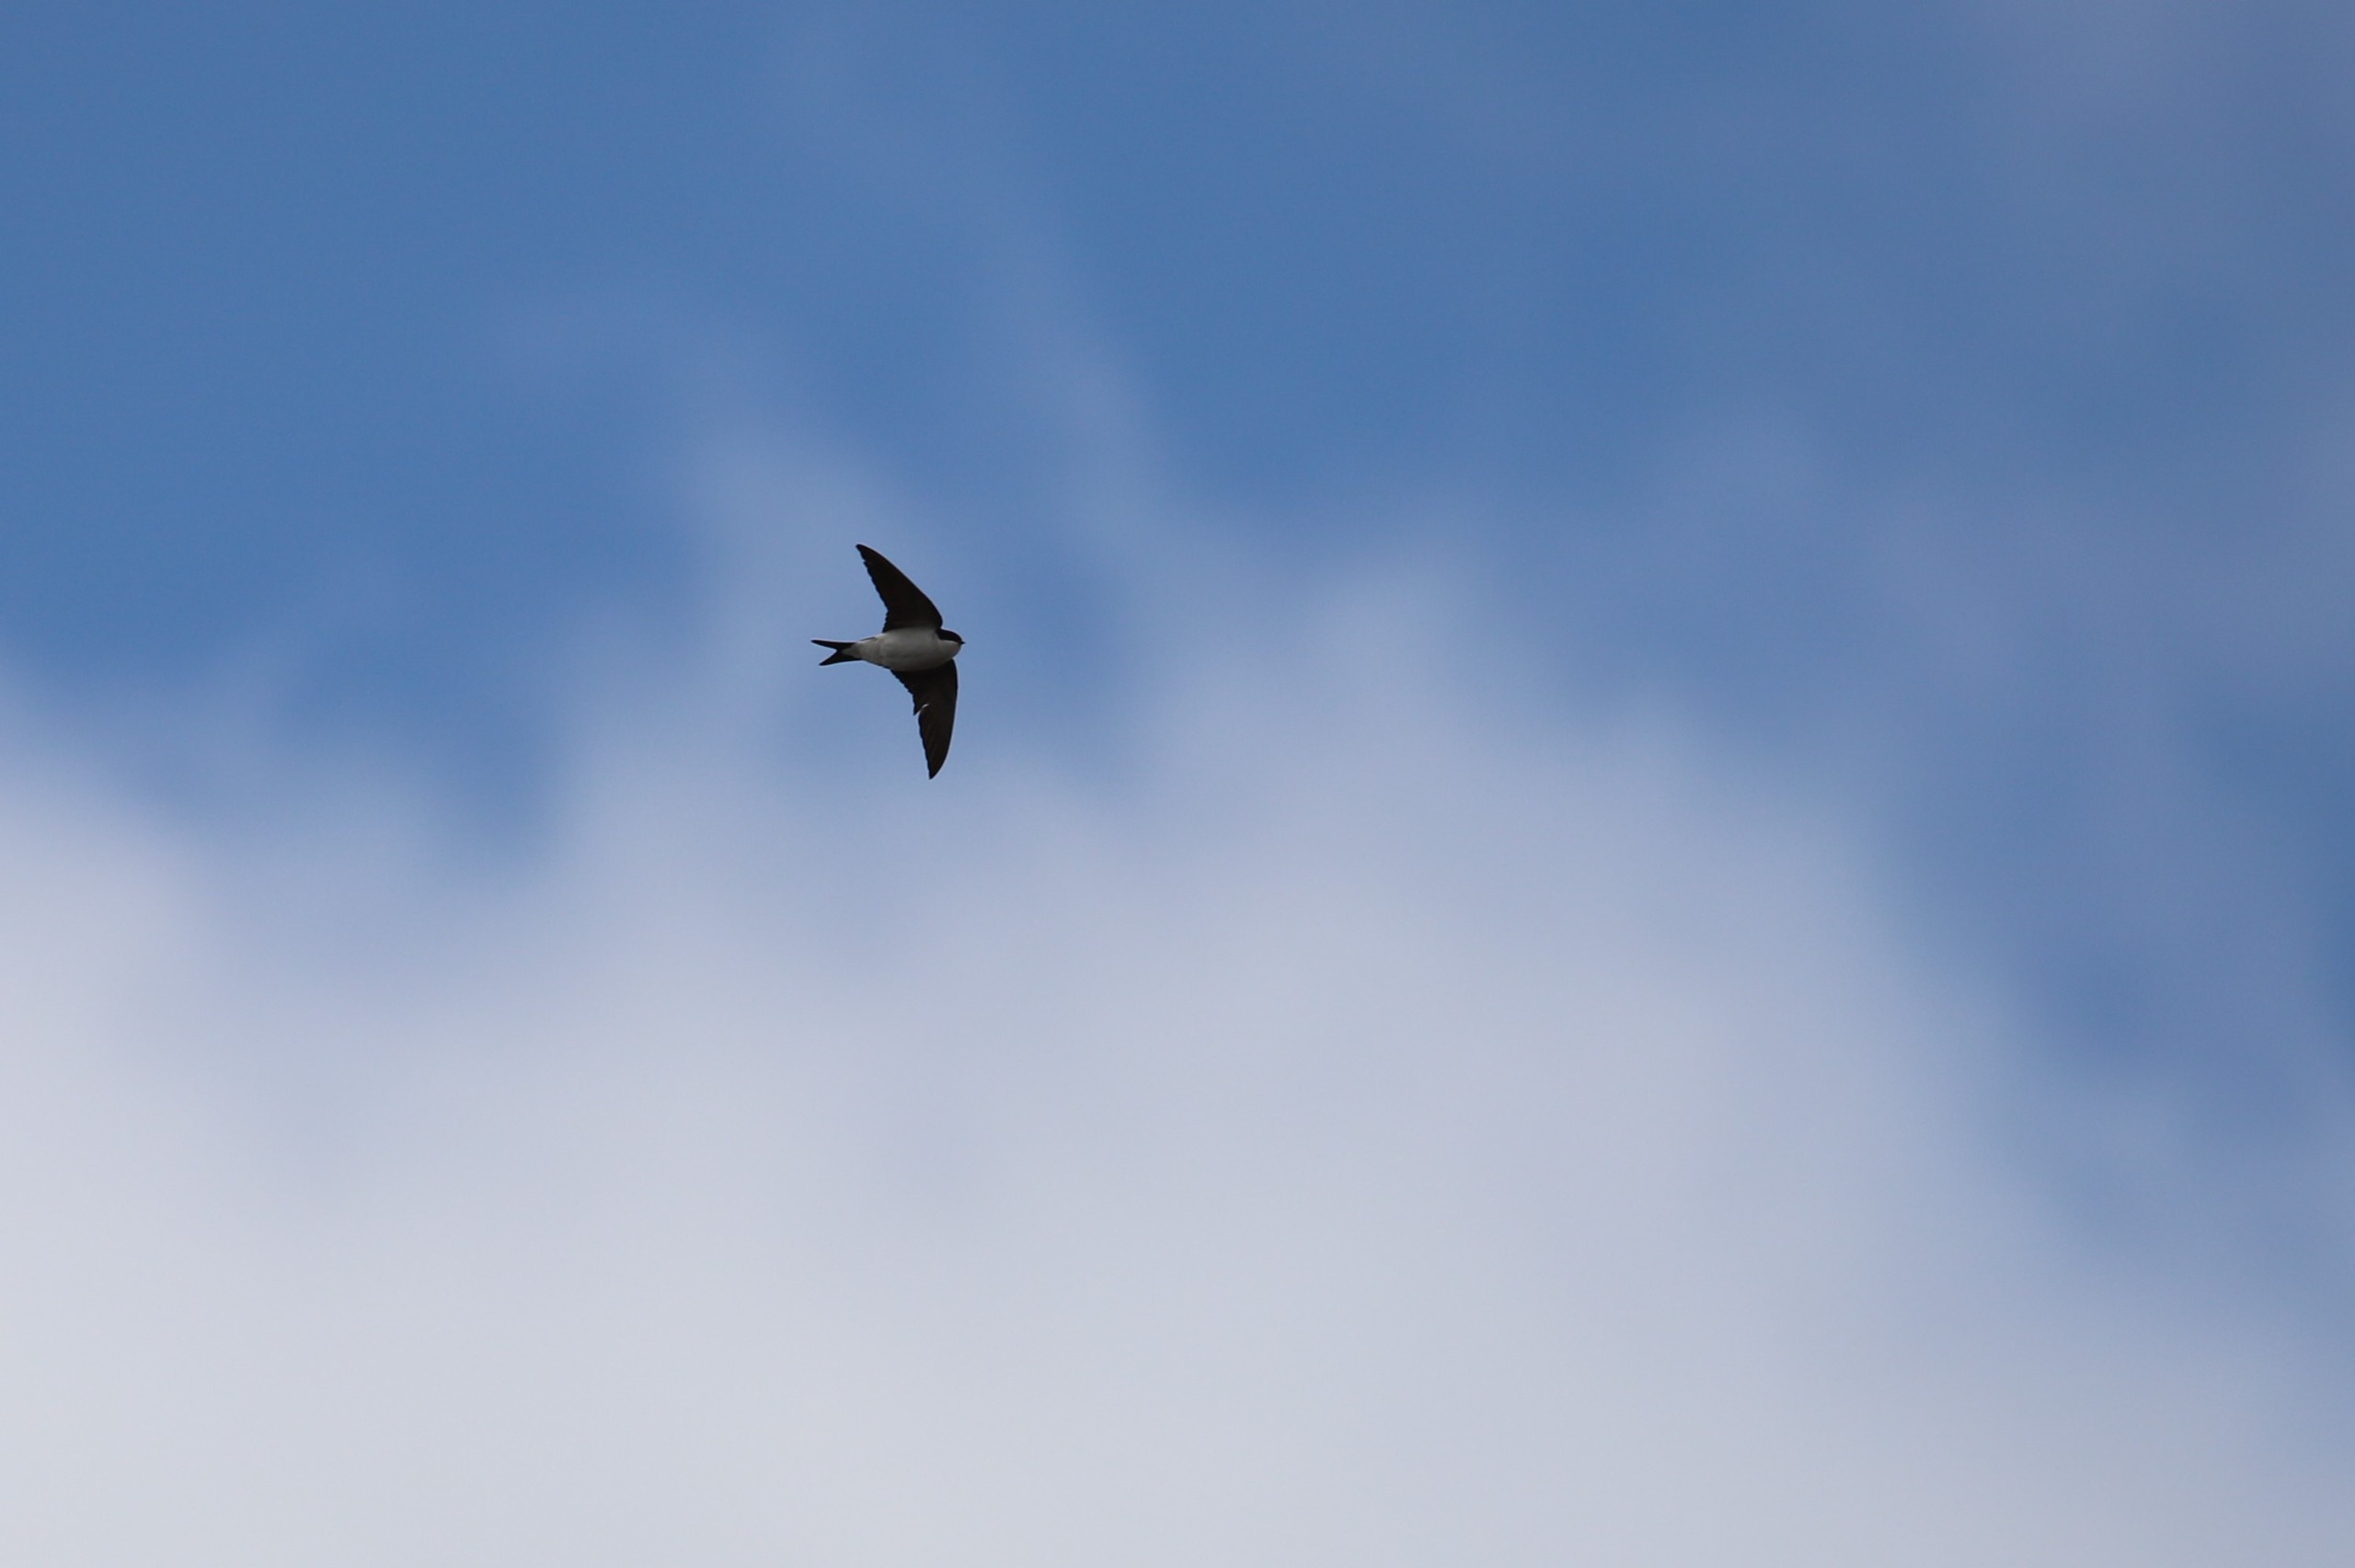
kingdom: Animalia
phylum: Chordata
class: Aves
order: Passeriformes
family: Hirundinidae
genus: Delichon
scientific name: Delichon urbicum
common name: Bysvale
